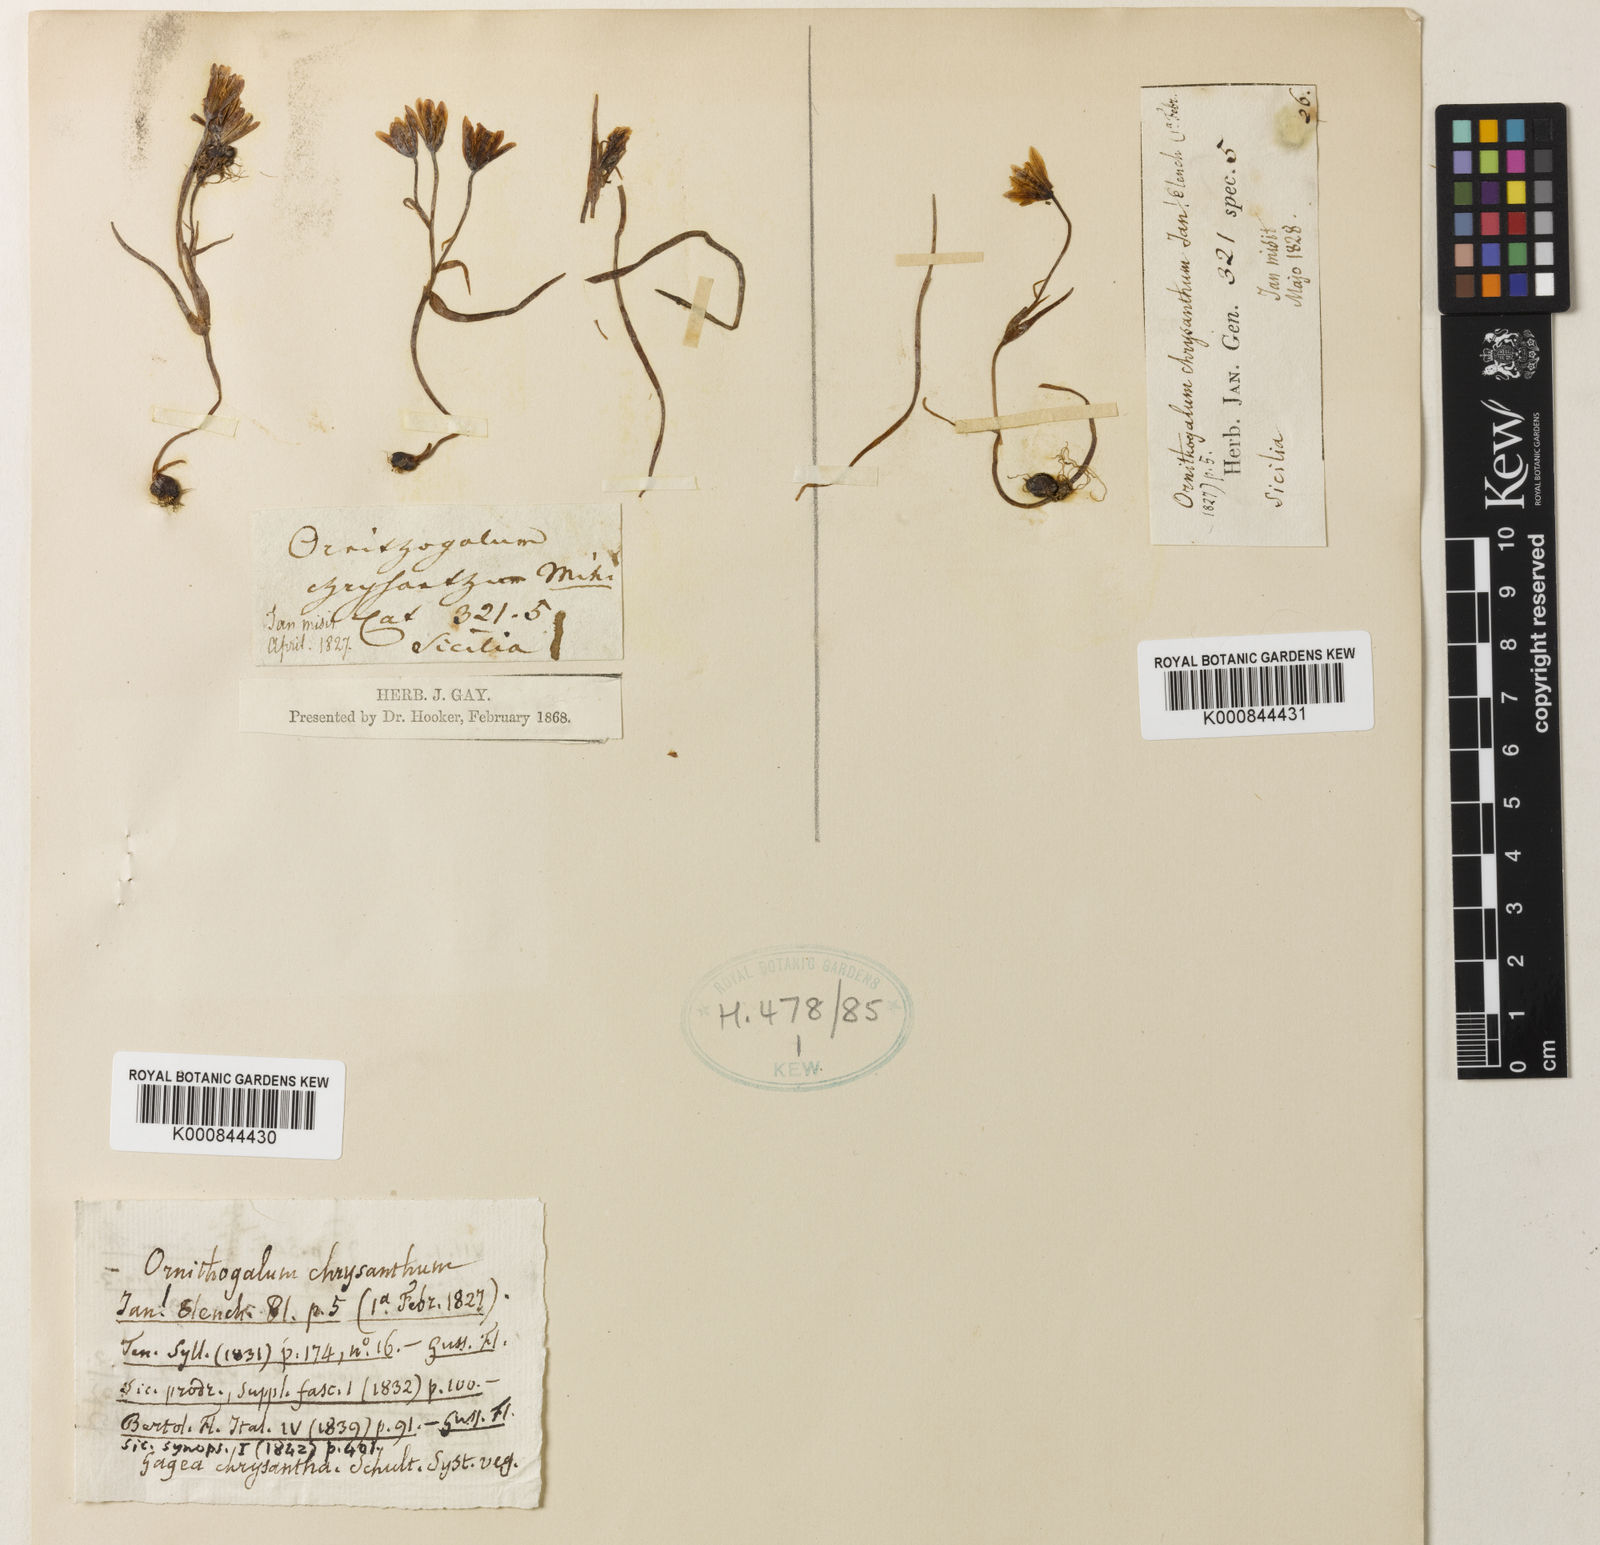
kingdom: Plantae
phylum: Tracheophyta
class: Liliopsida
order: Liliales
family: Liliaceae
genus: Gagea
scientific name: Gagea bohemica
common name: Early star-of-bethlehem
